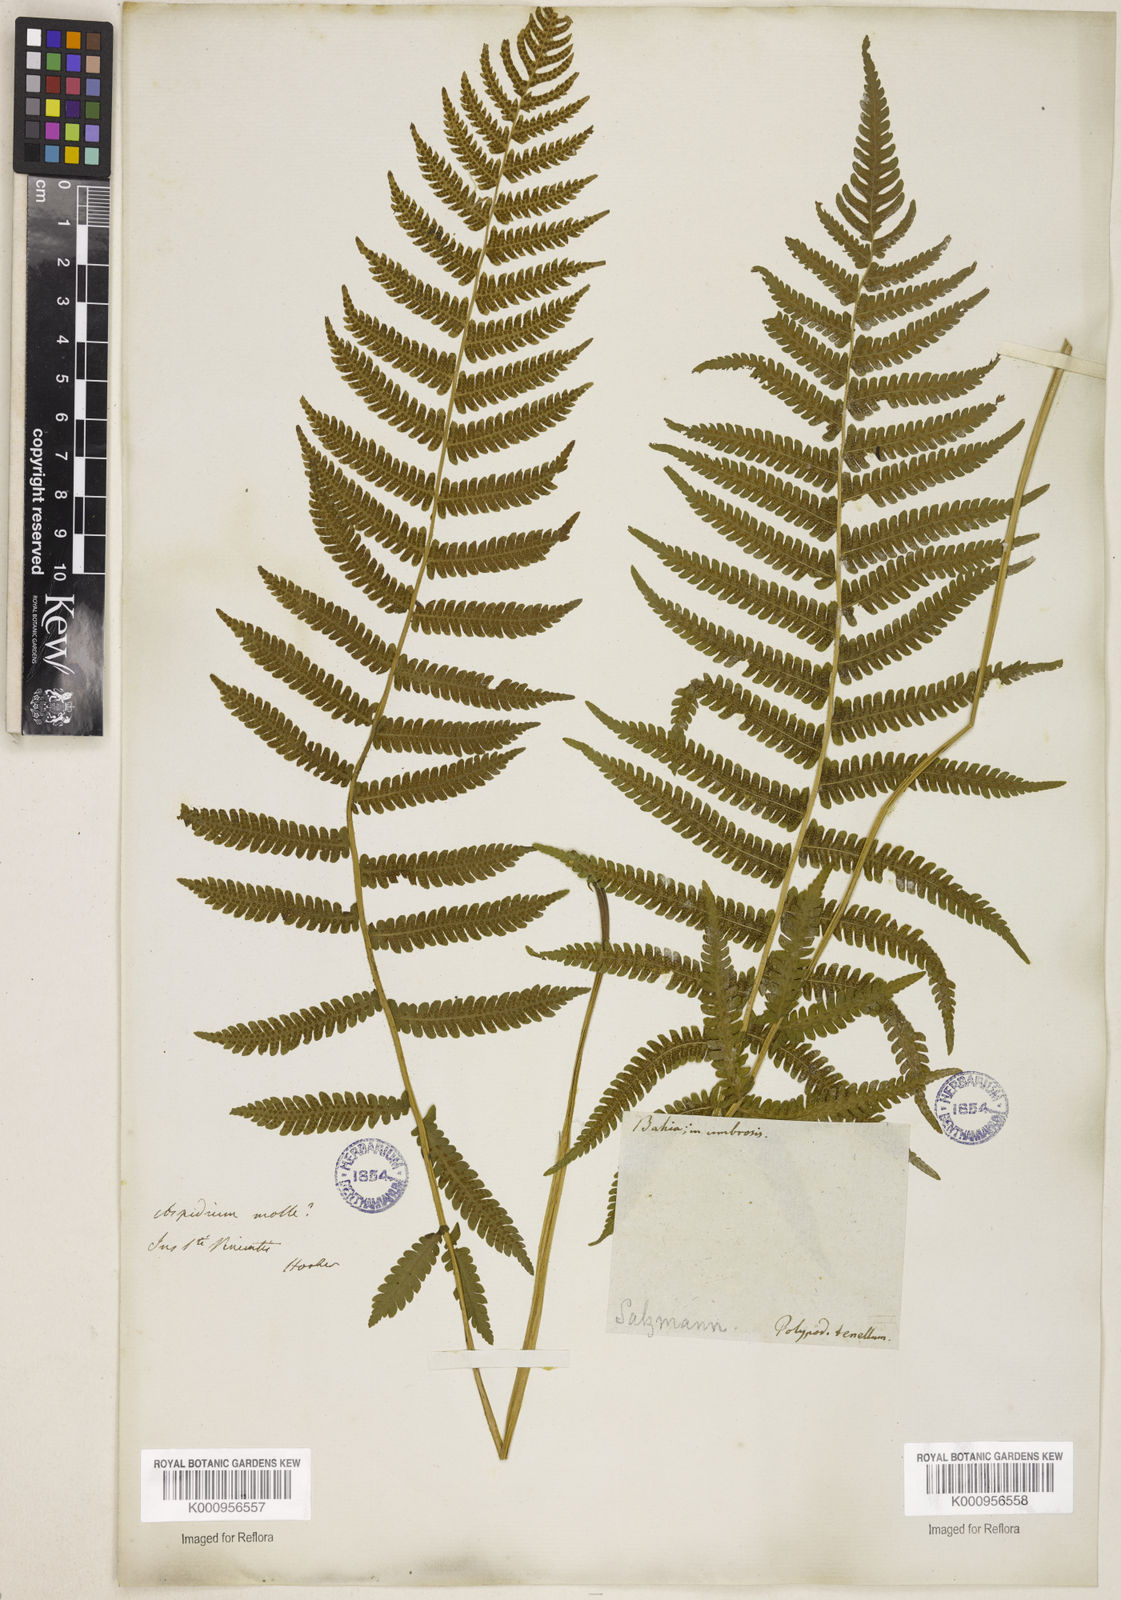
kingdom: Plantae
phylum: Tracheophyta
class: Polypodiopsida
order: Polypodiales
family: Thelypteridaceae
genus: Christella
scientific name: Christella hispidula
